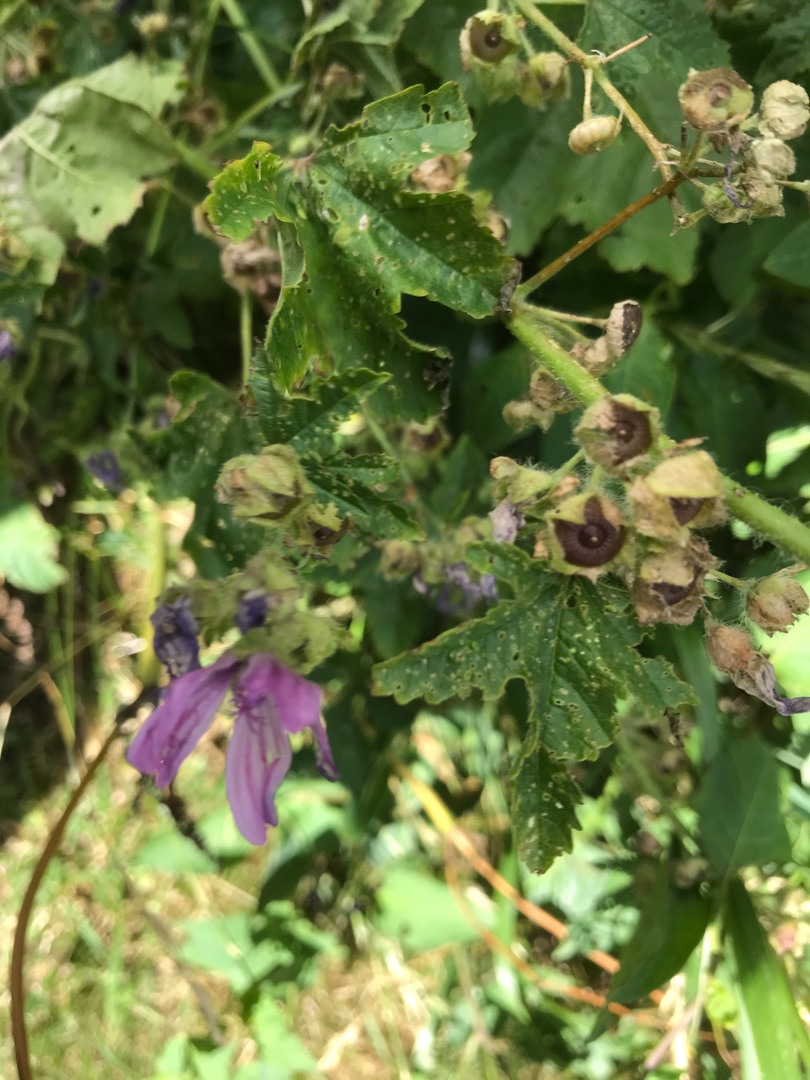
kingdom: Plantae
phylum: Tracheophyta
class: Magnoliopsida
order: Malvales
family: Malvaceae
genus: Malva
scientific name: Malva sylvestris
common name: Almindelig katost
